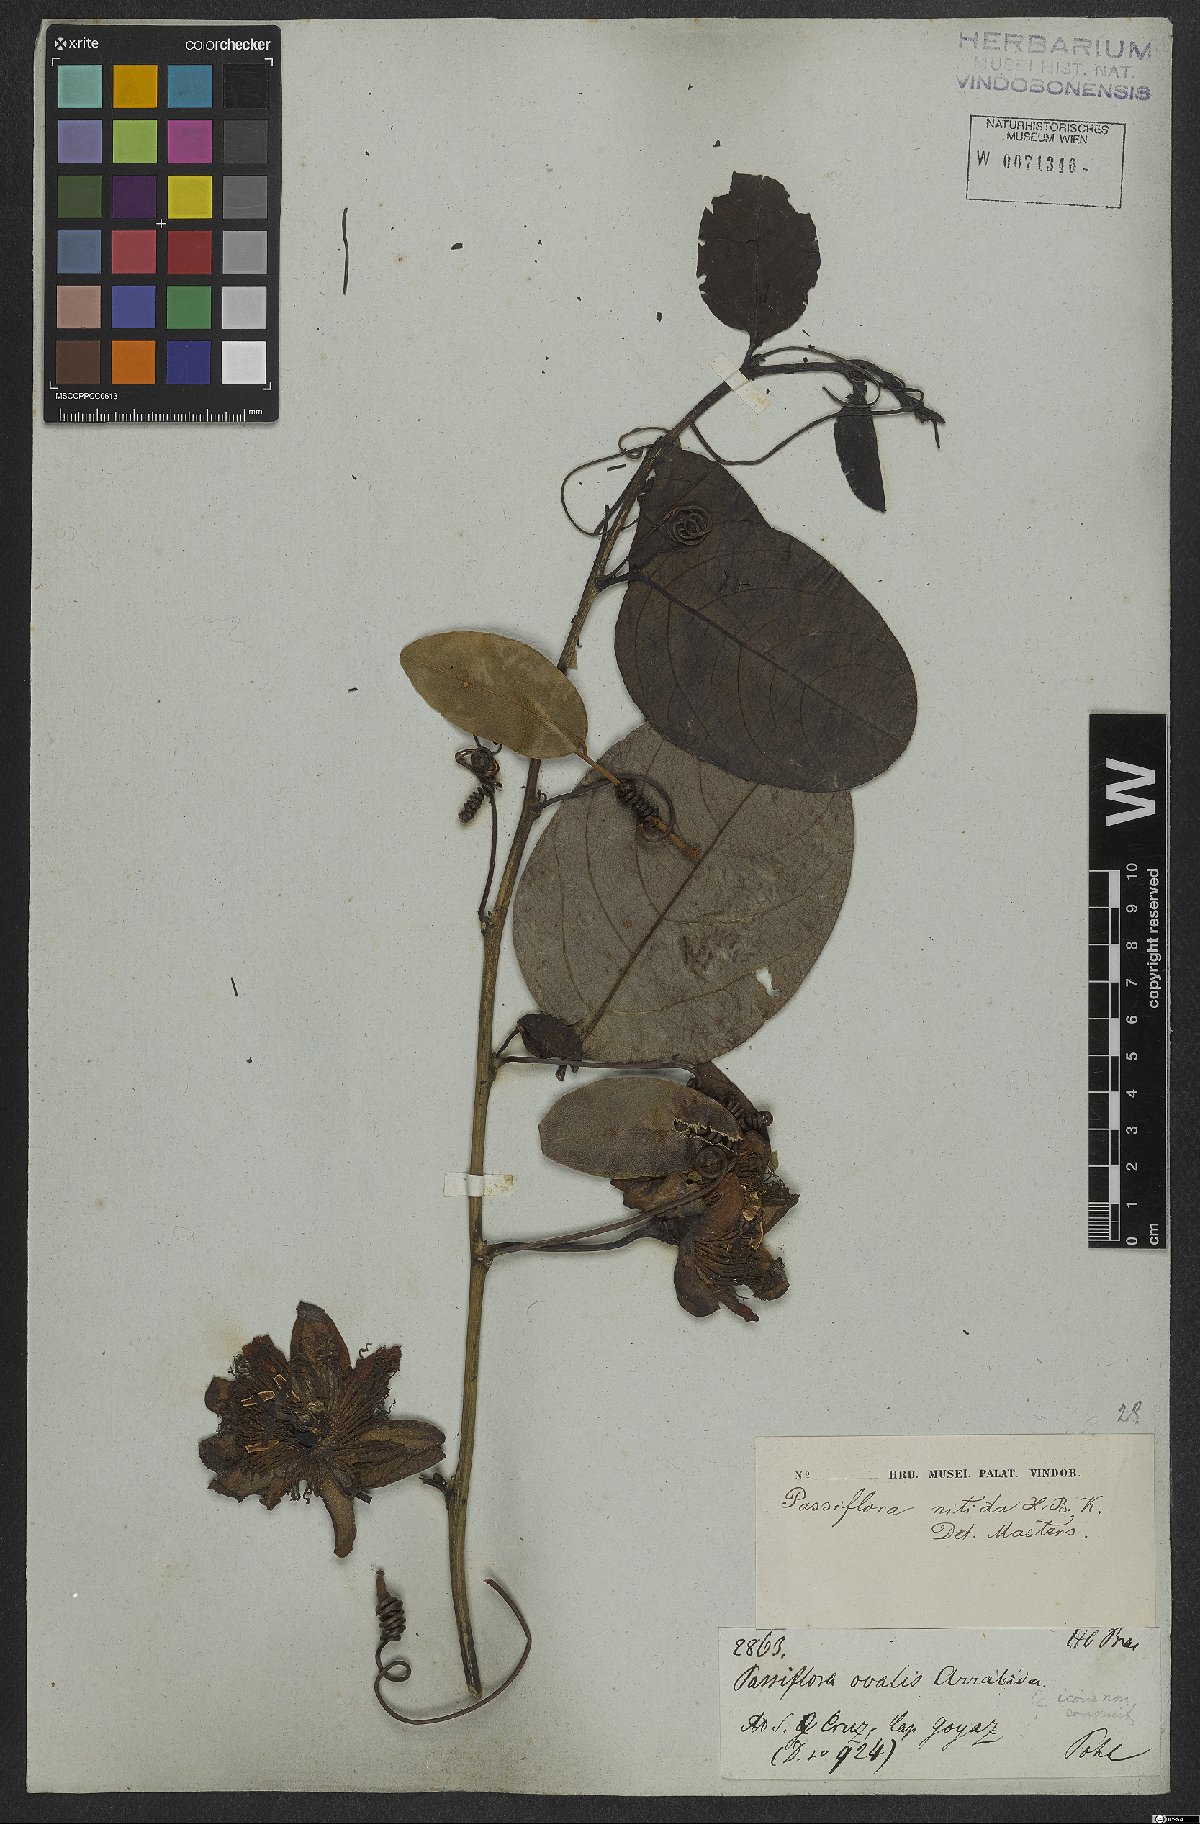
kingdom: Plantae
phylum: Tracheophyta
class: Magnoliopsida
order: Malpighiales
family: Passifloraceae
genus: Passiflora
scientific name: Passiflora nitida
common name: Bell-apple
